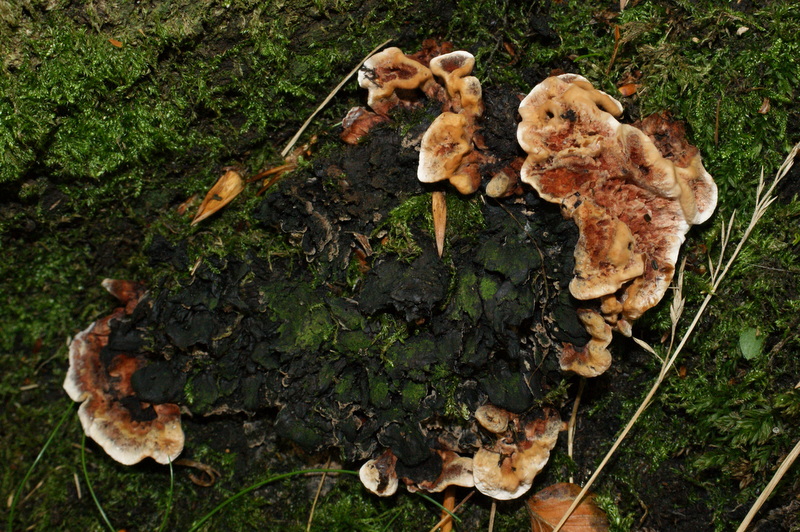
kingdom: Fungi
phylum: Basidiomycota
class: Agaricomycetes
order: Thelephorales
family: Bankeraceae
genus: Hydnellum
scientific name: Hydnellum concrescens
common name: Zoned tooth
